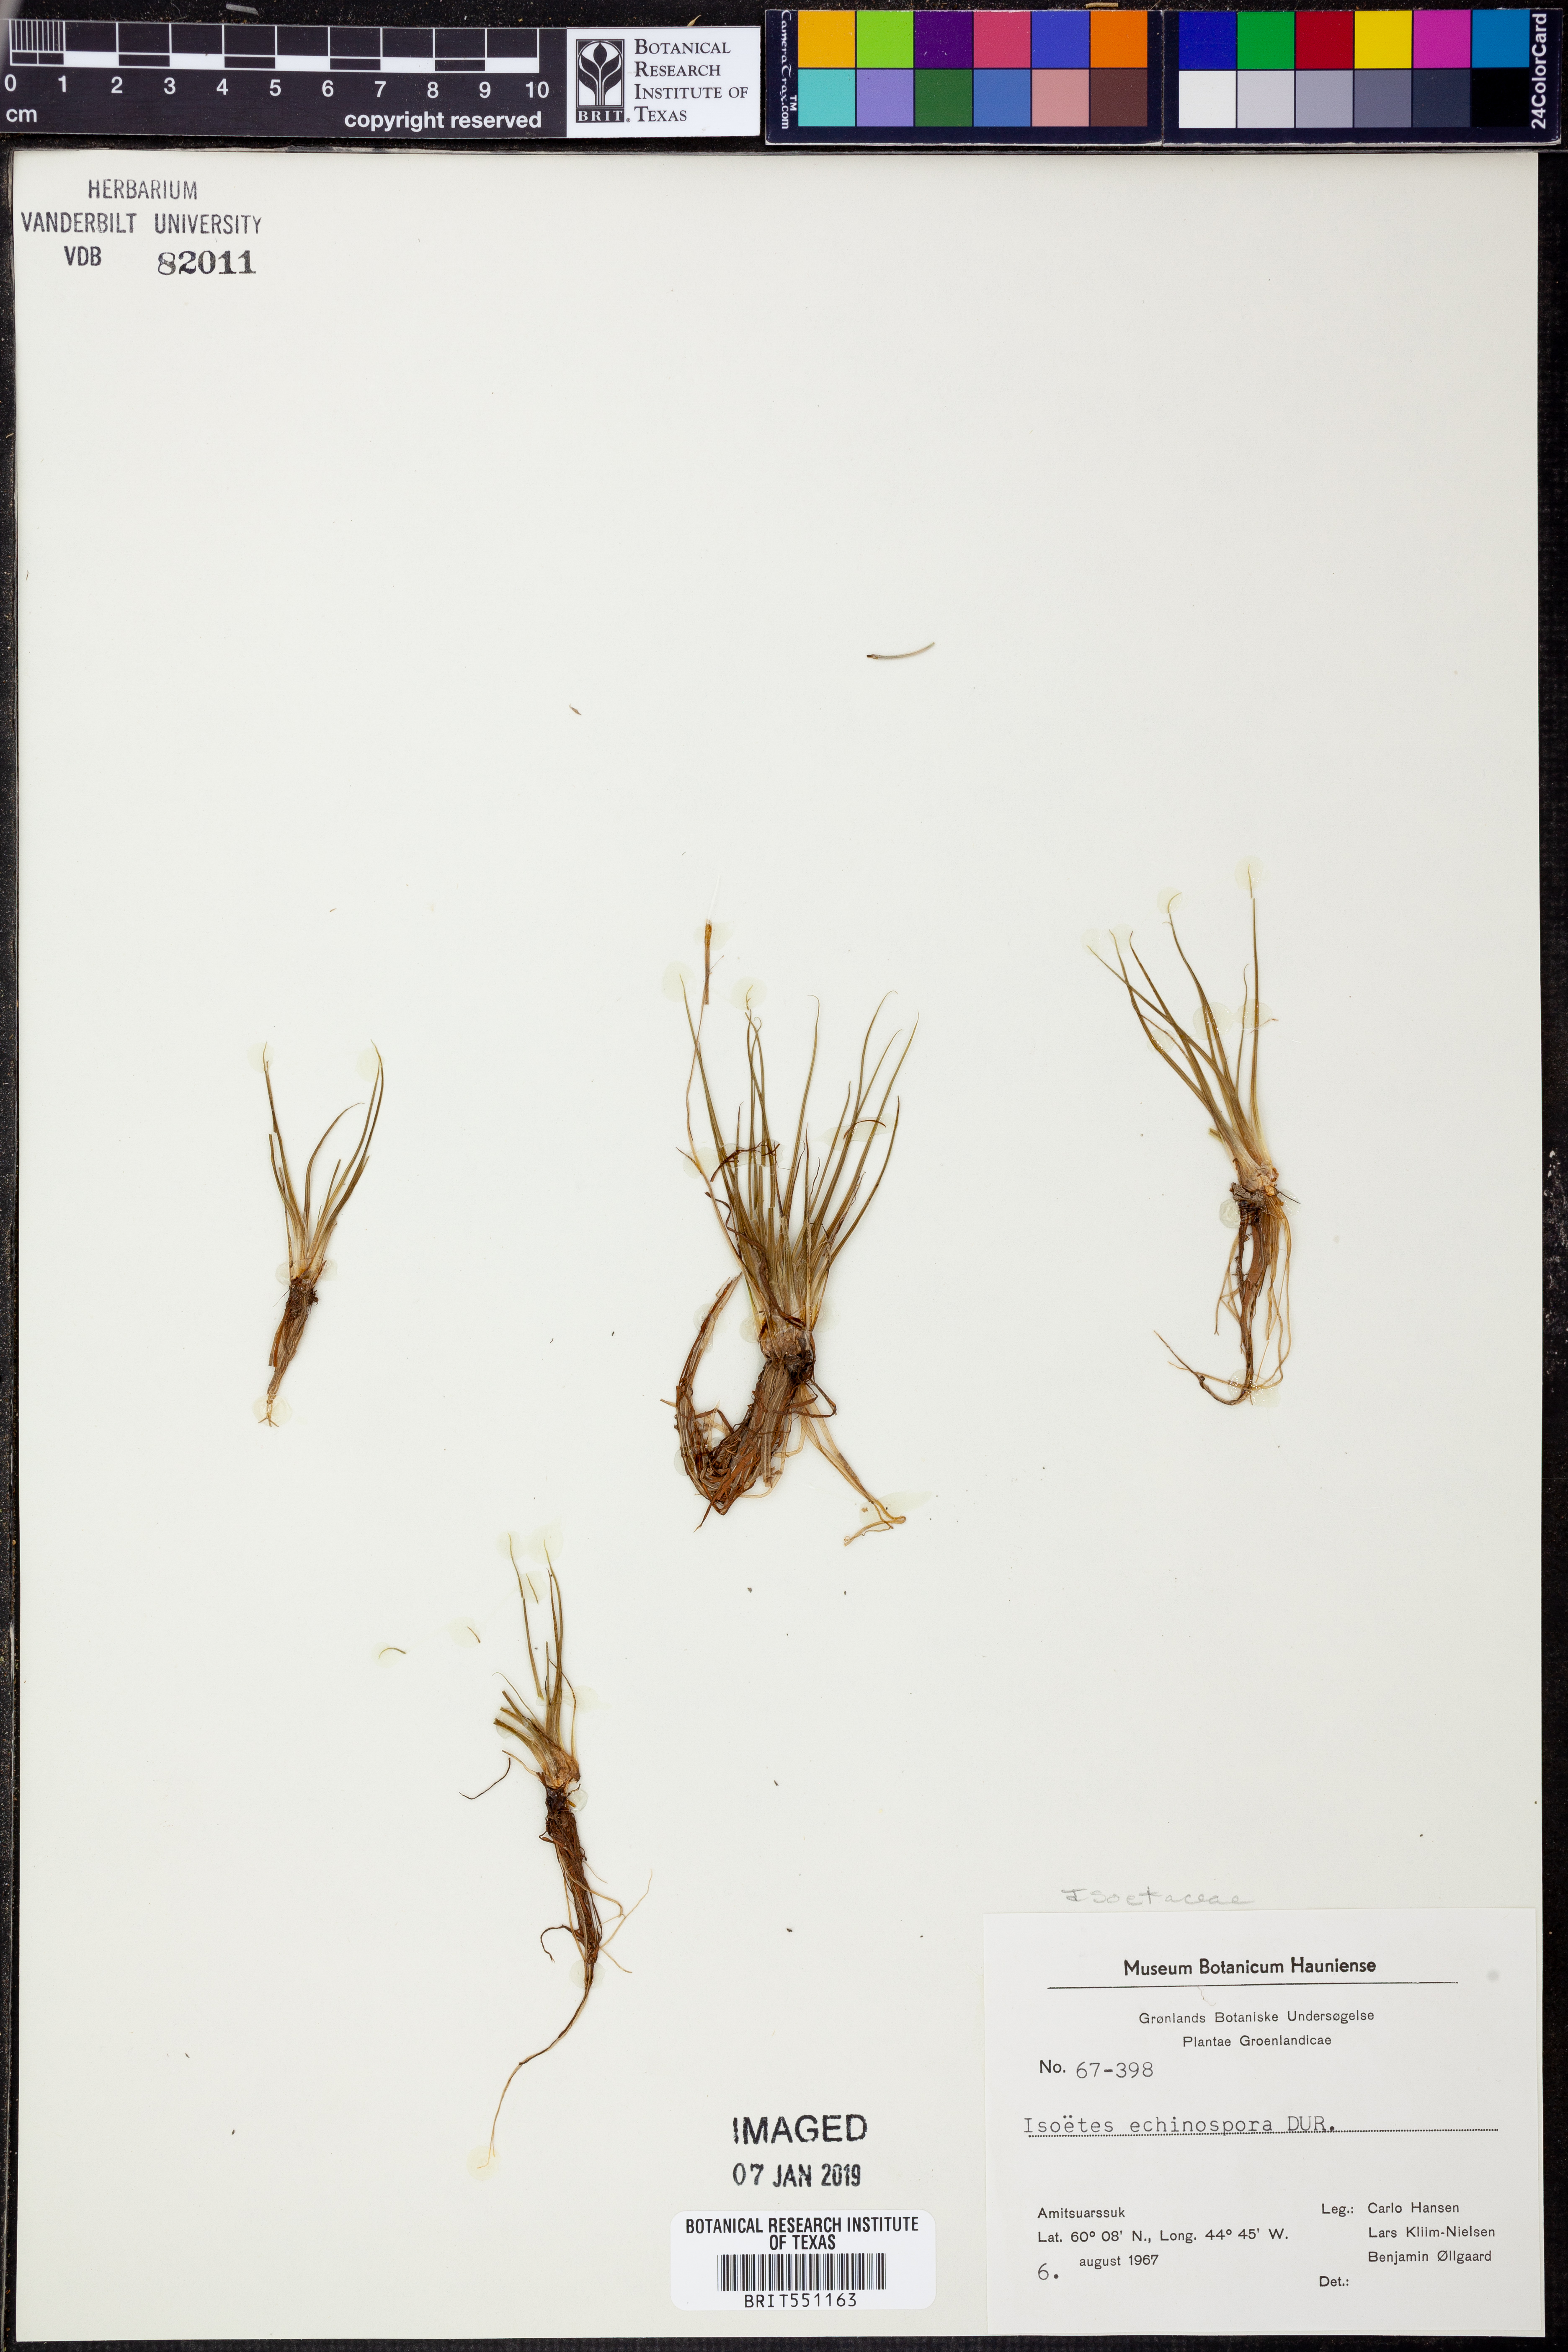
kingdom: Plantae
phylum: Tracheophyta
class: Lycopodiopsida
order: Isoetales
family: Isoetaceae
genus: Isoetes
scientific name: Isoetes echinospora
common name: Spring quillwort
